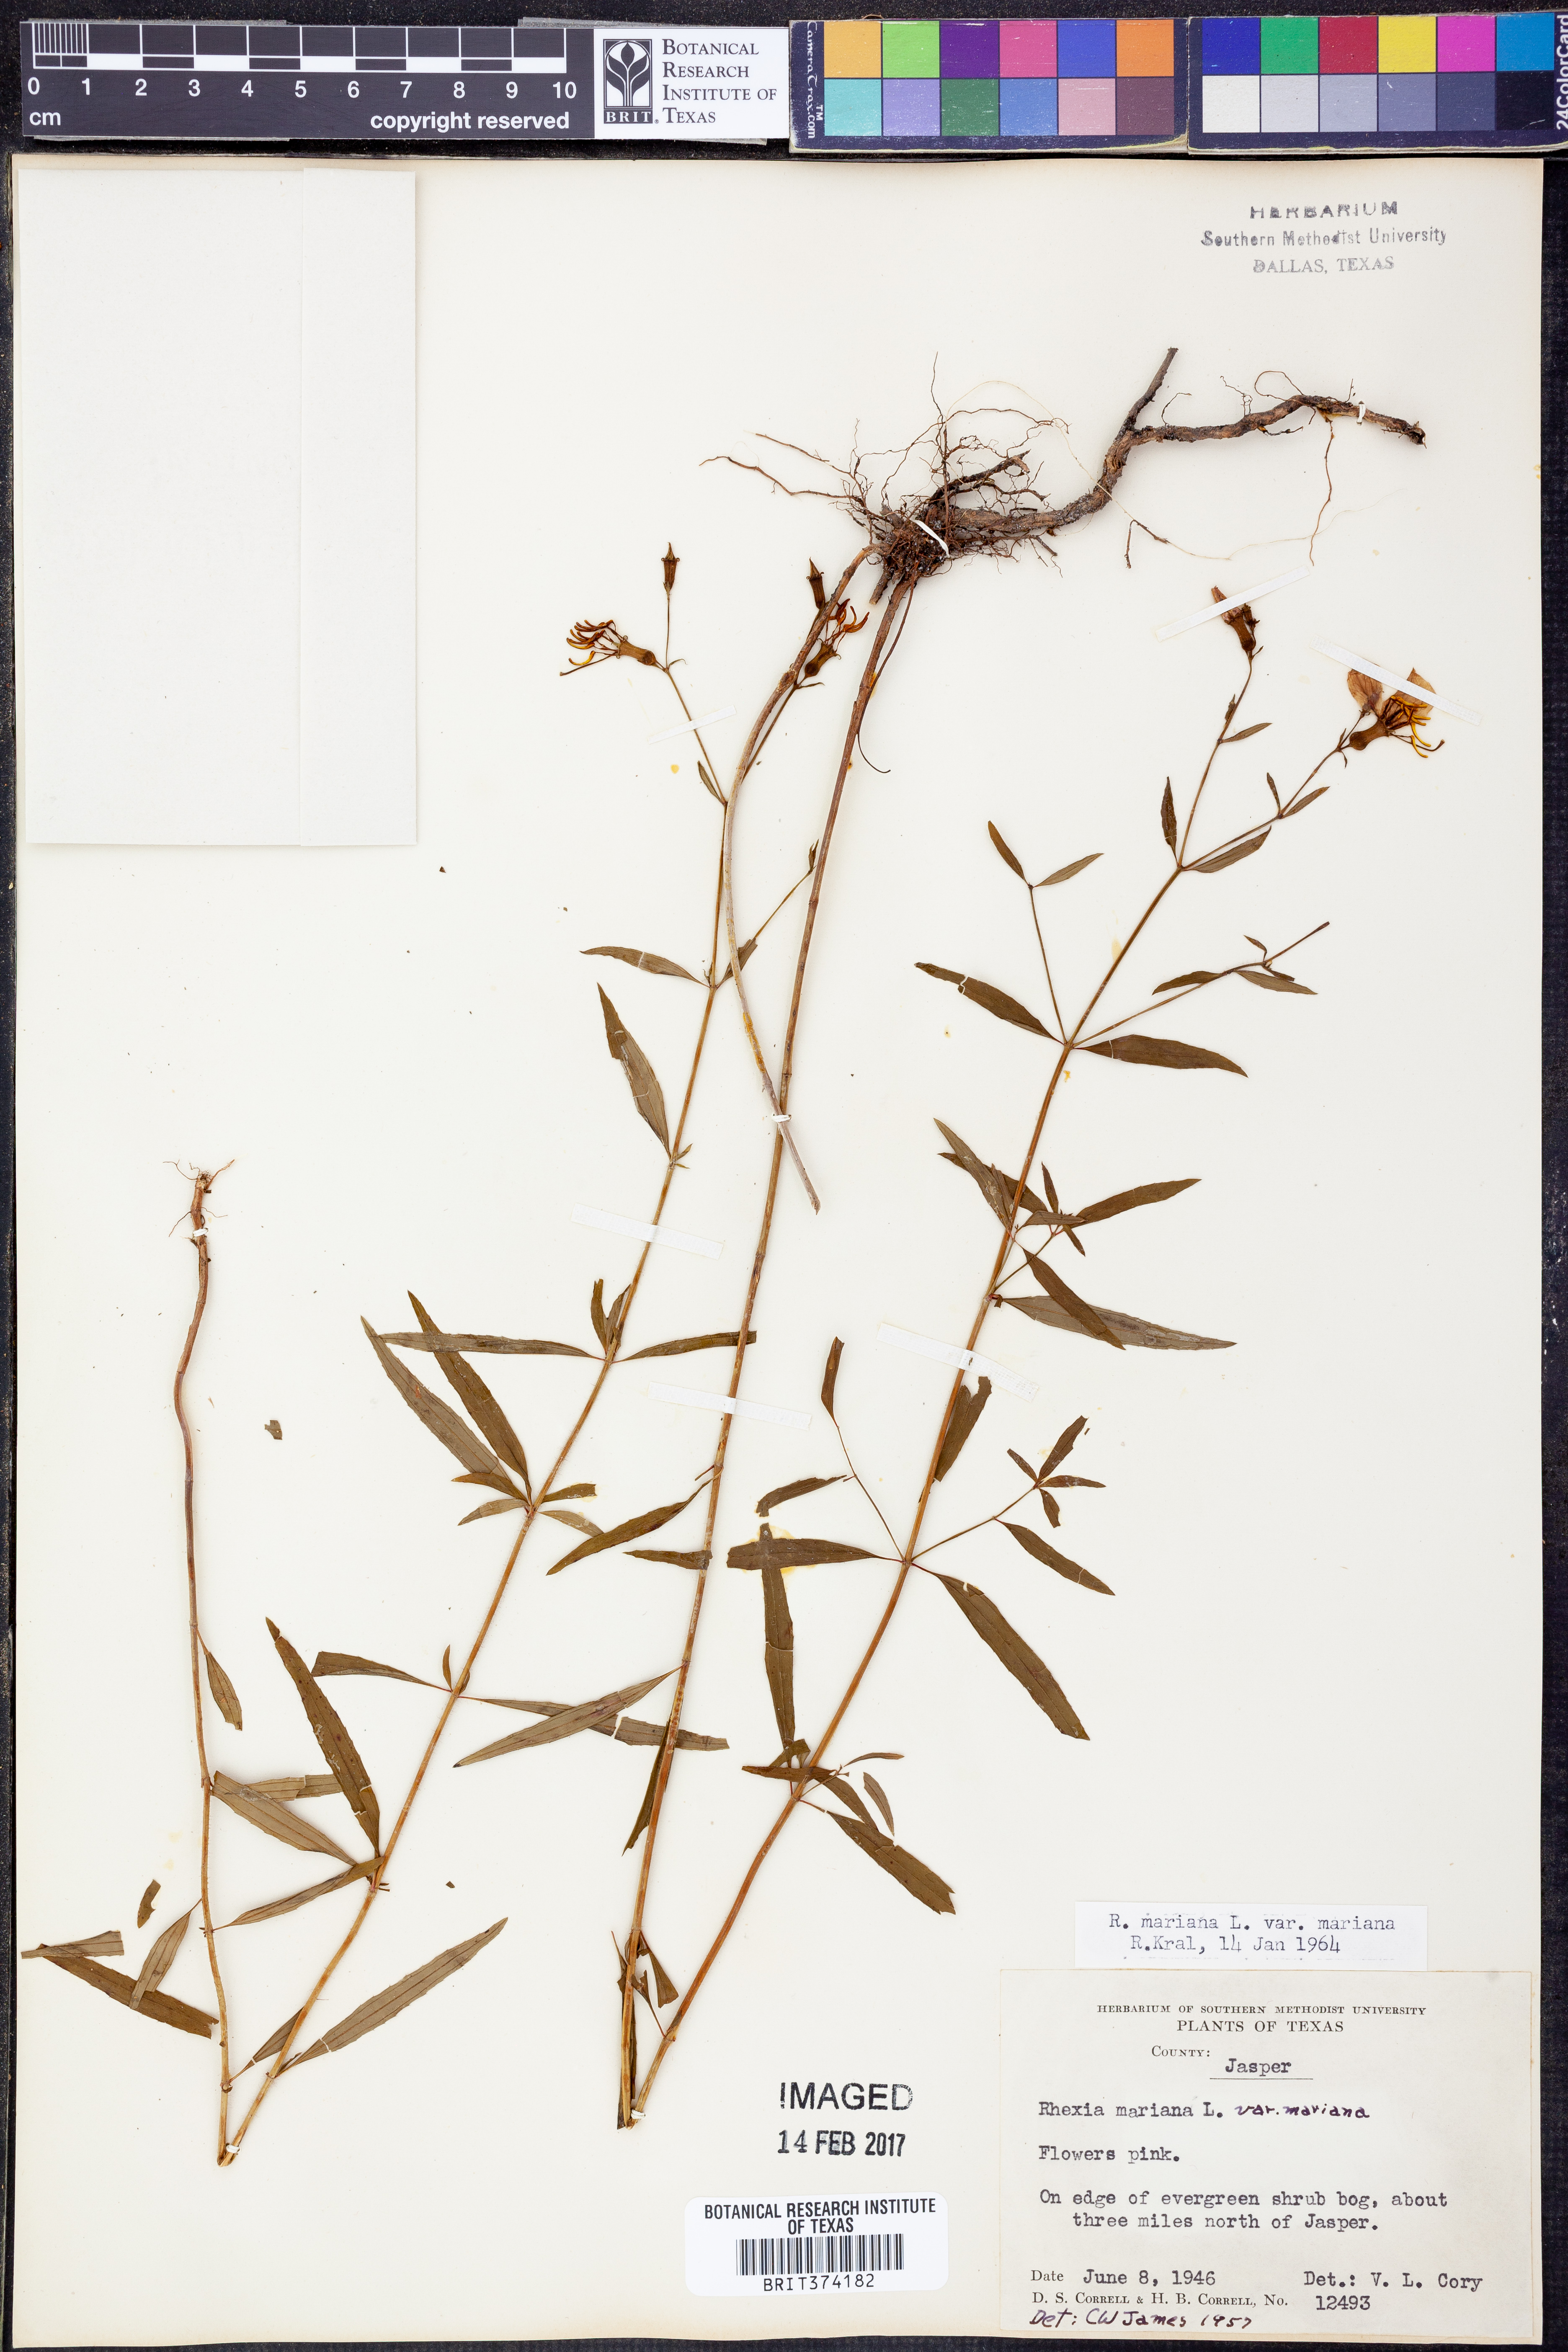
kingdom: Plantae
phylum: Tracheophyta
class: Magnoliopsida
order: Myrtales
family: Melastomataceae
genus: Rhexia
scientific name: Rhexia mariana
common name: Dull meadow-pitcher
